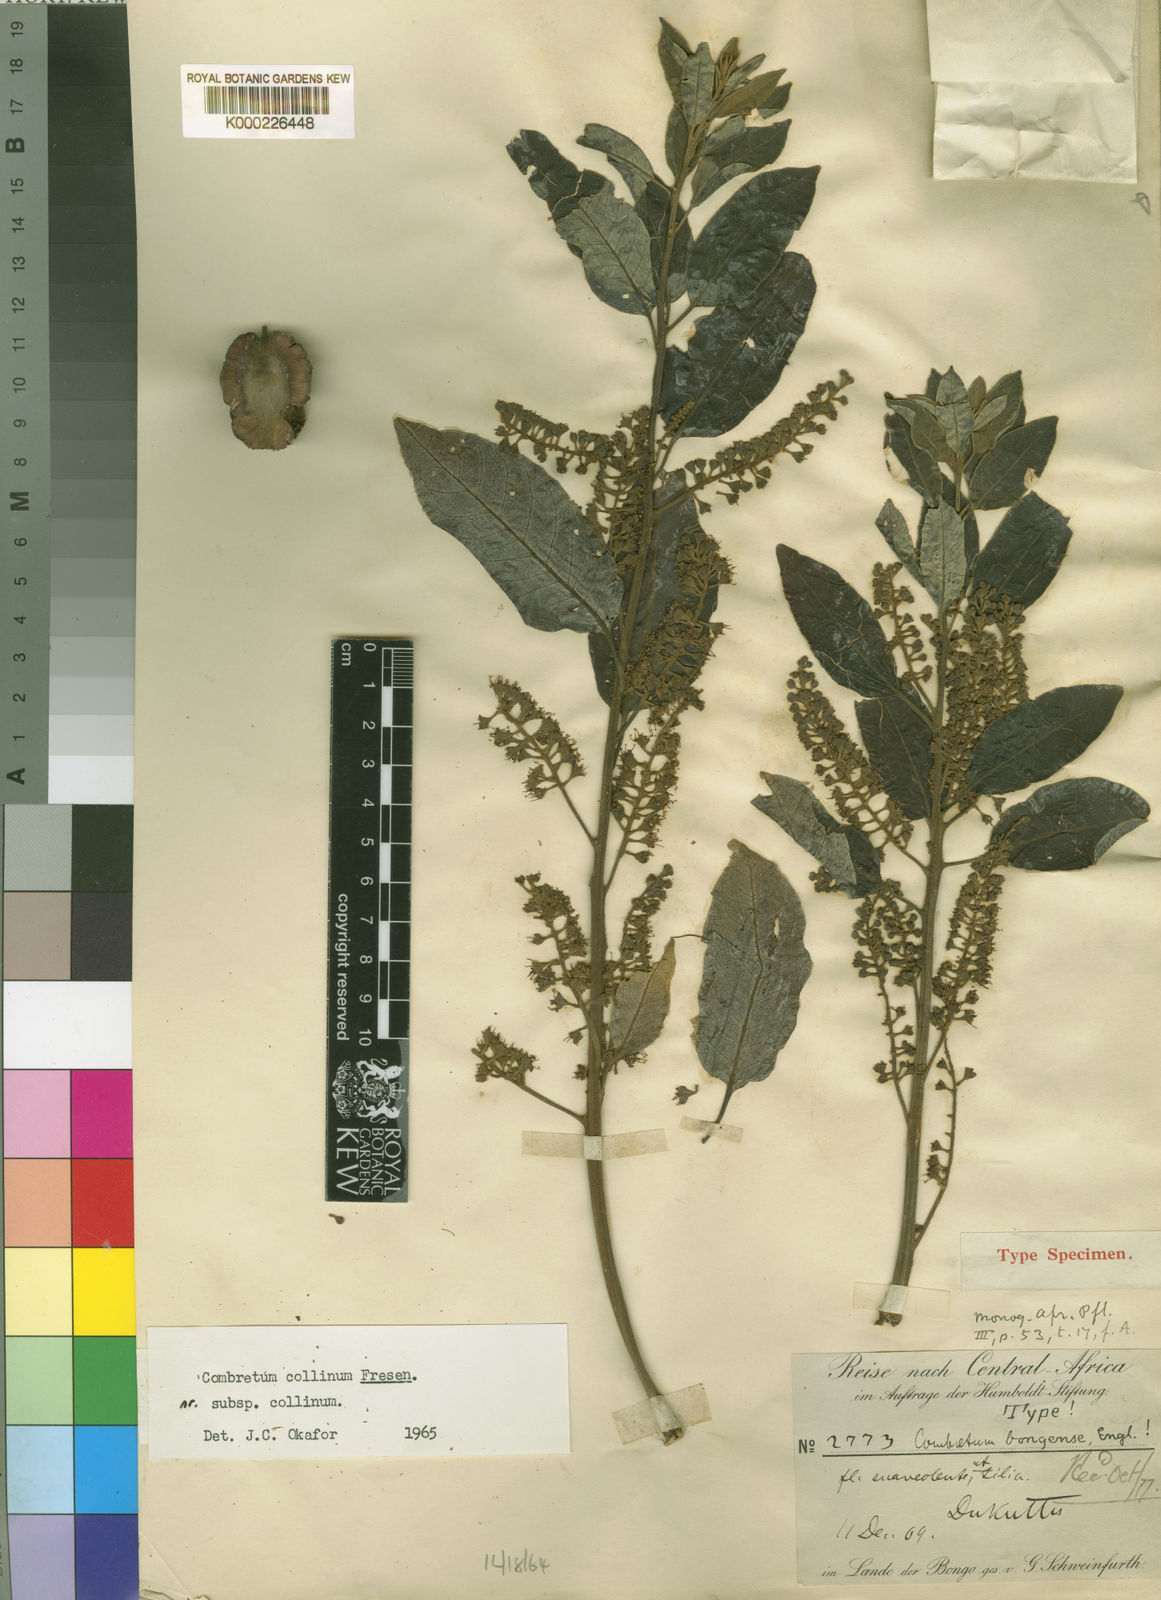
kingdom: Plantae
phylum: Tracheophyta
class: Magnoliopsida
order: Myrtales
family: Combretaceae
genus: Combretum
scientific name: Combretum collinum
